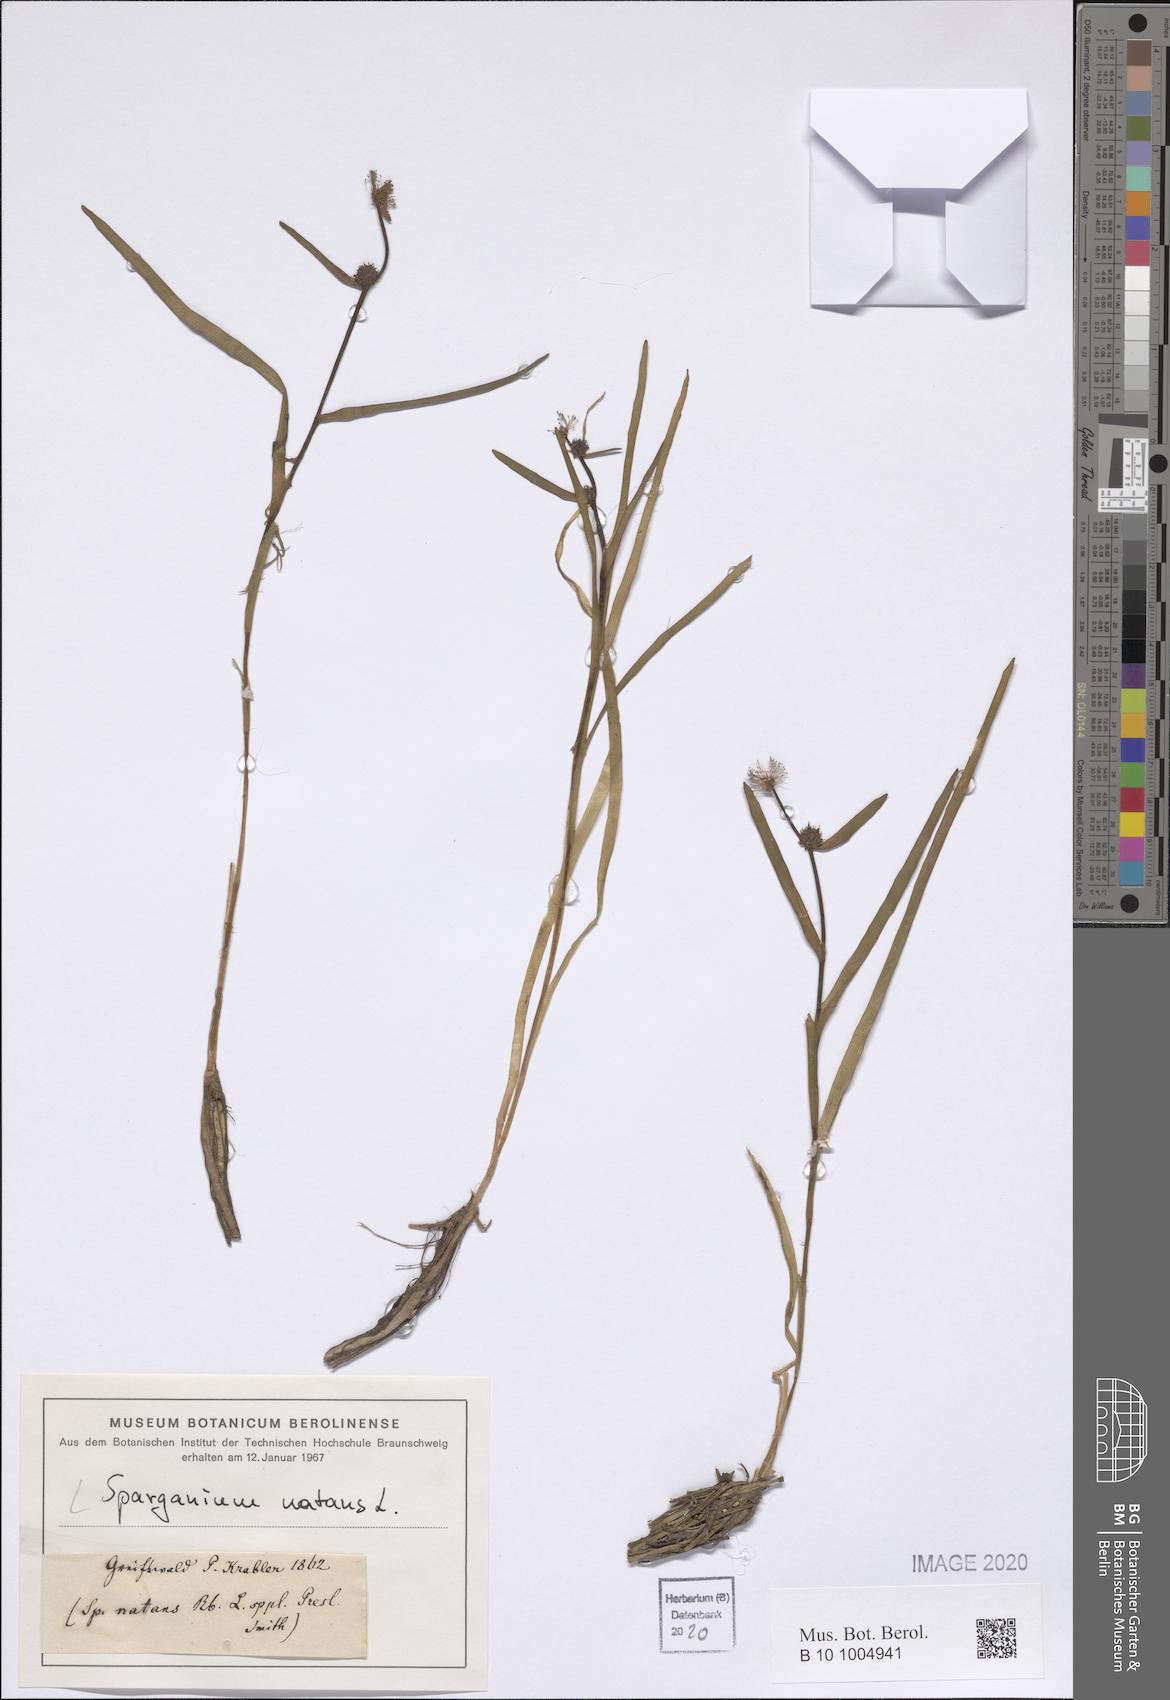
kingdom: Plantae
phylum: Tracheophyta
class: Liliopsida
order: Poales
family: Typhaceae
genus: Sparganium
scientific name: Sparganium natans
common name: Least bur-reed
